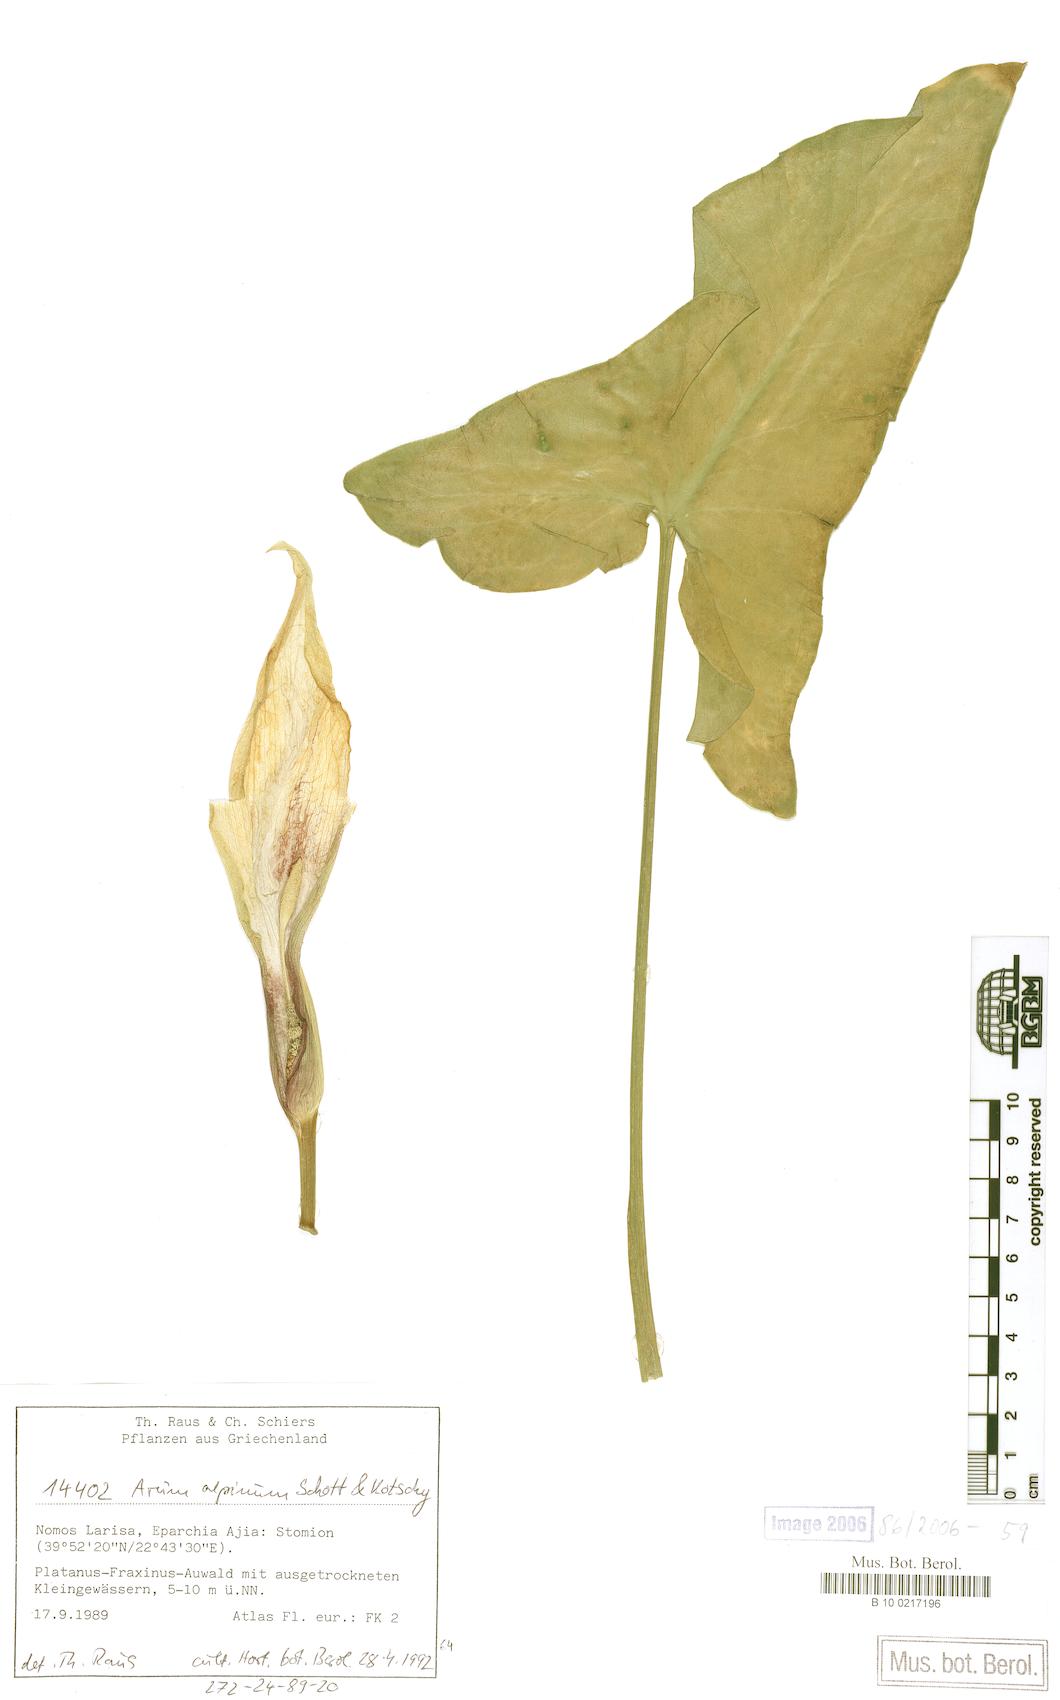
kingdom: Plantae
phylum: Tracheophyta
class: Liliopsida
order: Alismatales
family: Araceae
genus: Arum
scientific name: Arum cylindraceum
